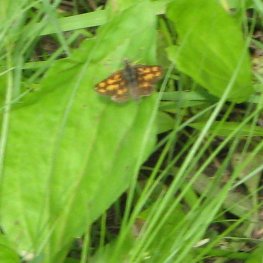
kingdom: Animalia
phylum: Arthropoda
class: Insecta
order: Lepidoptera
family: Hesperiidae
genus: Carterocephalus
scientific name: Carterocephalus palaemon
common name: Chequered Skipper
